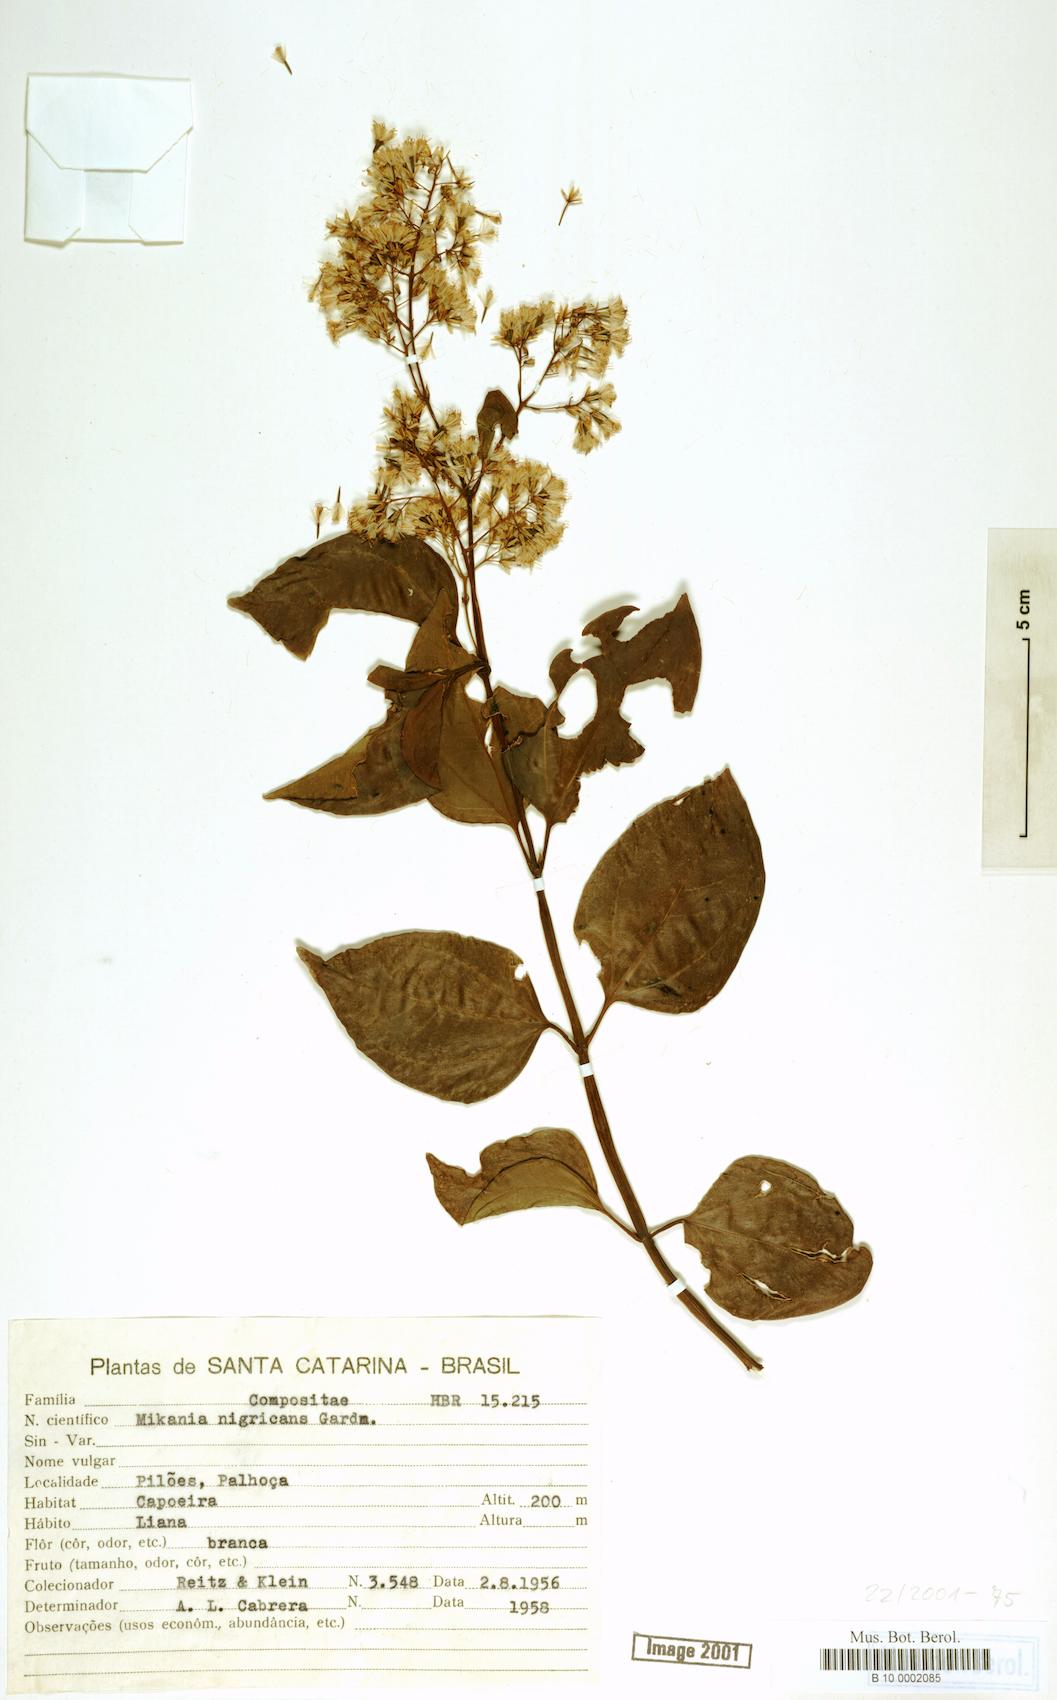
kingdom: Plantae
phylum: Tracheophyta
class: Magnoliopsida
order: Asterales
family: Asteraceae
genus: Mikania
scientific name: Mikania nigricans
